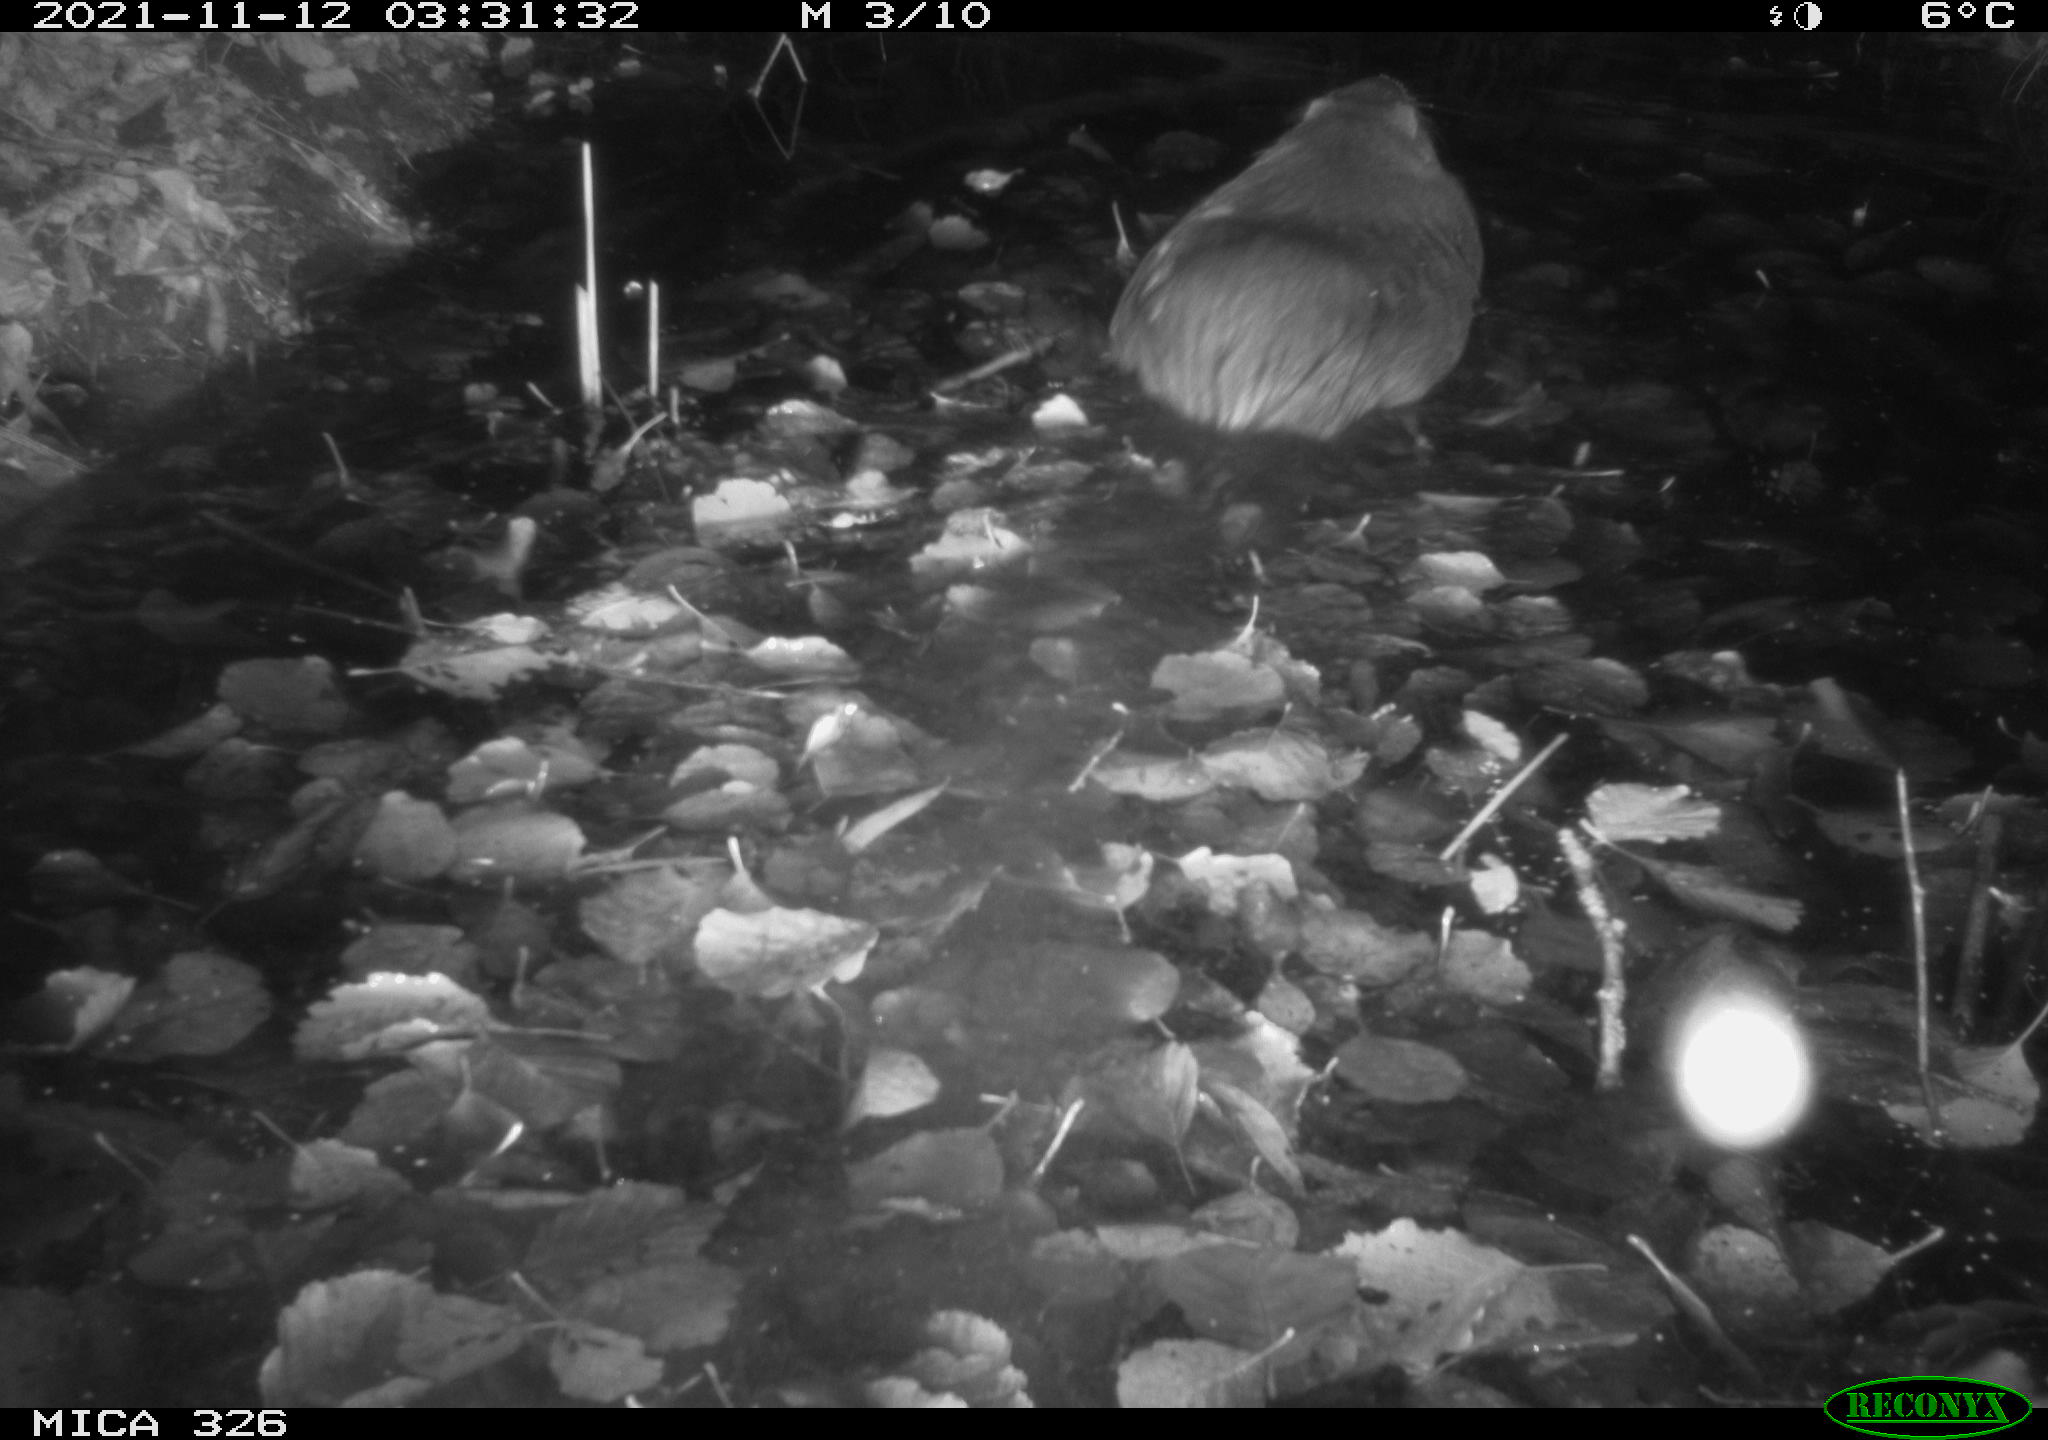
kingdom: Animalia
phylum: Chordata
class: Mammalia
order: Rodentia
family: Myocastoridae
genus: Myocastor
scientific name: Myocastor coypus
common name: Coypu
